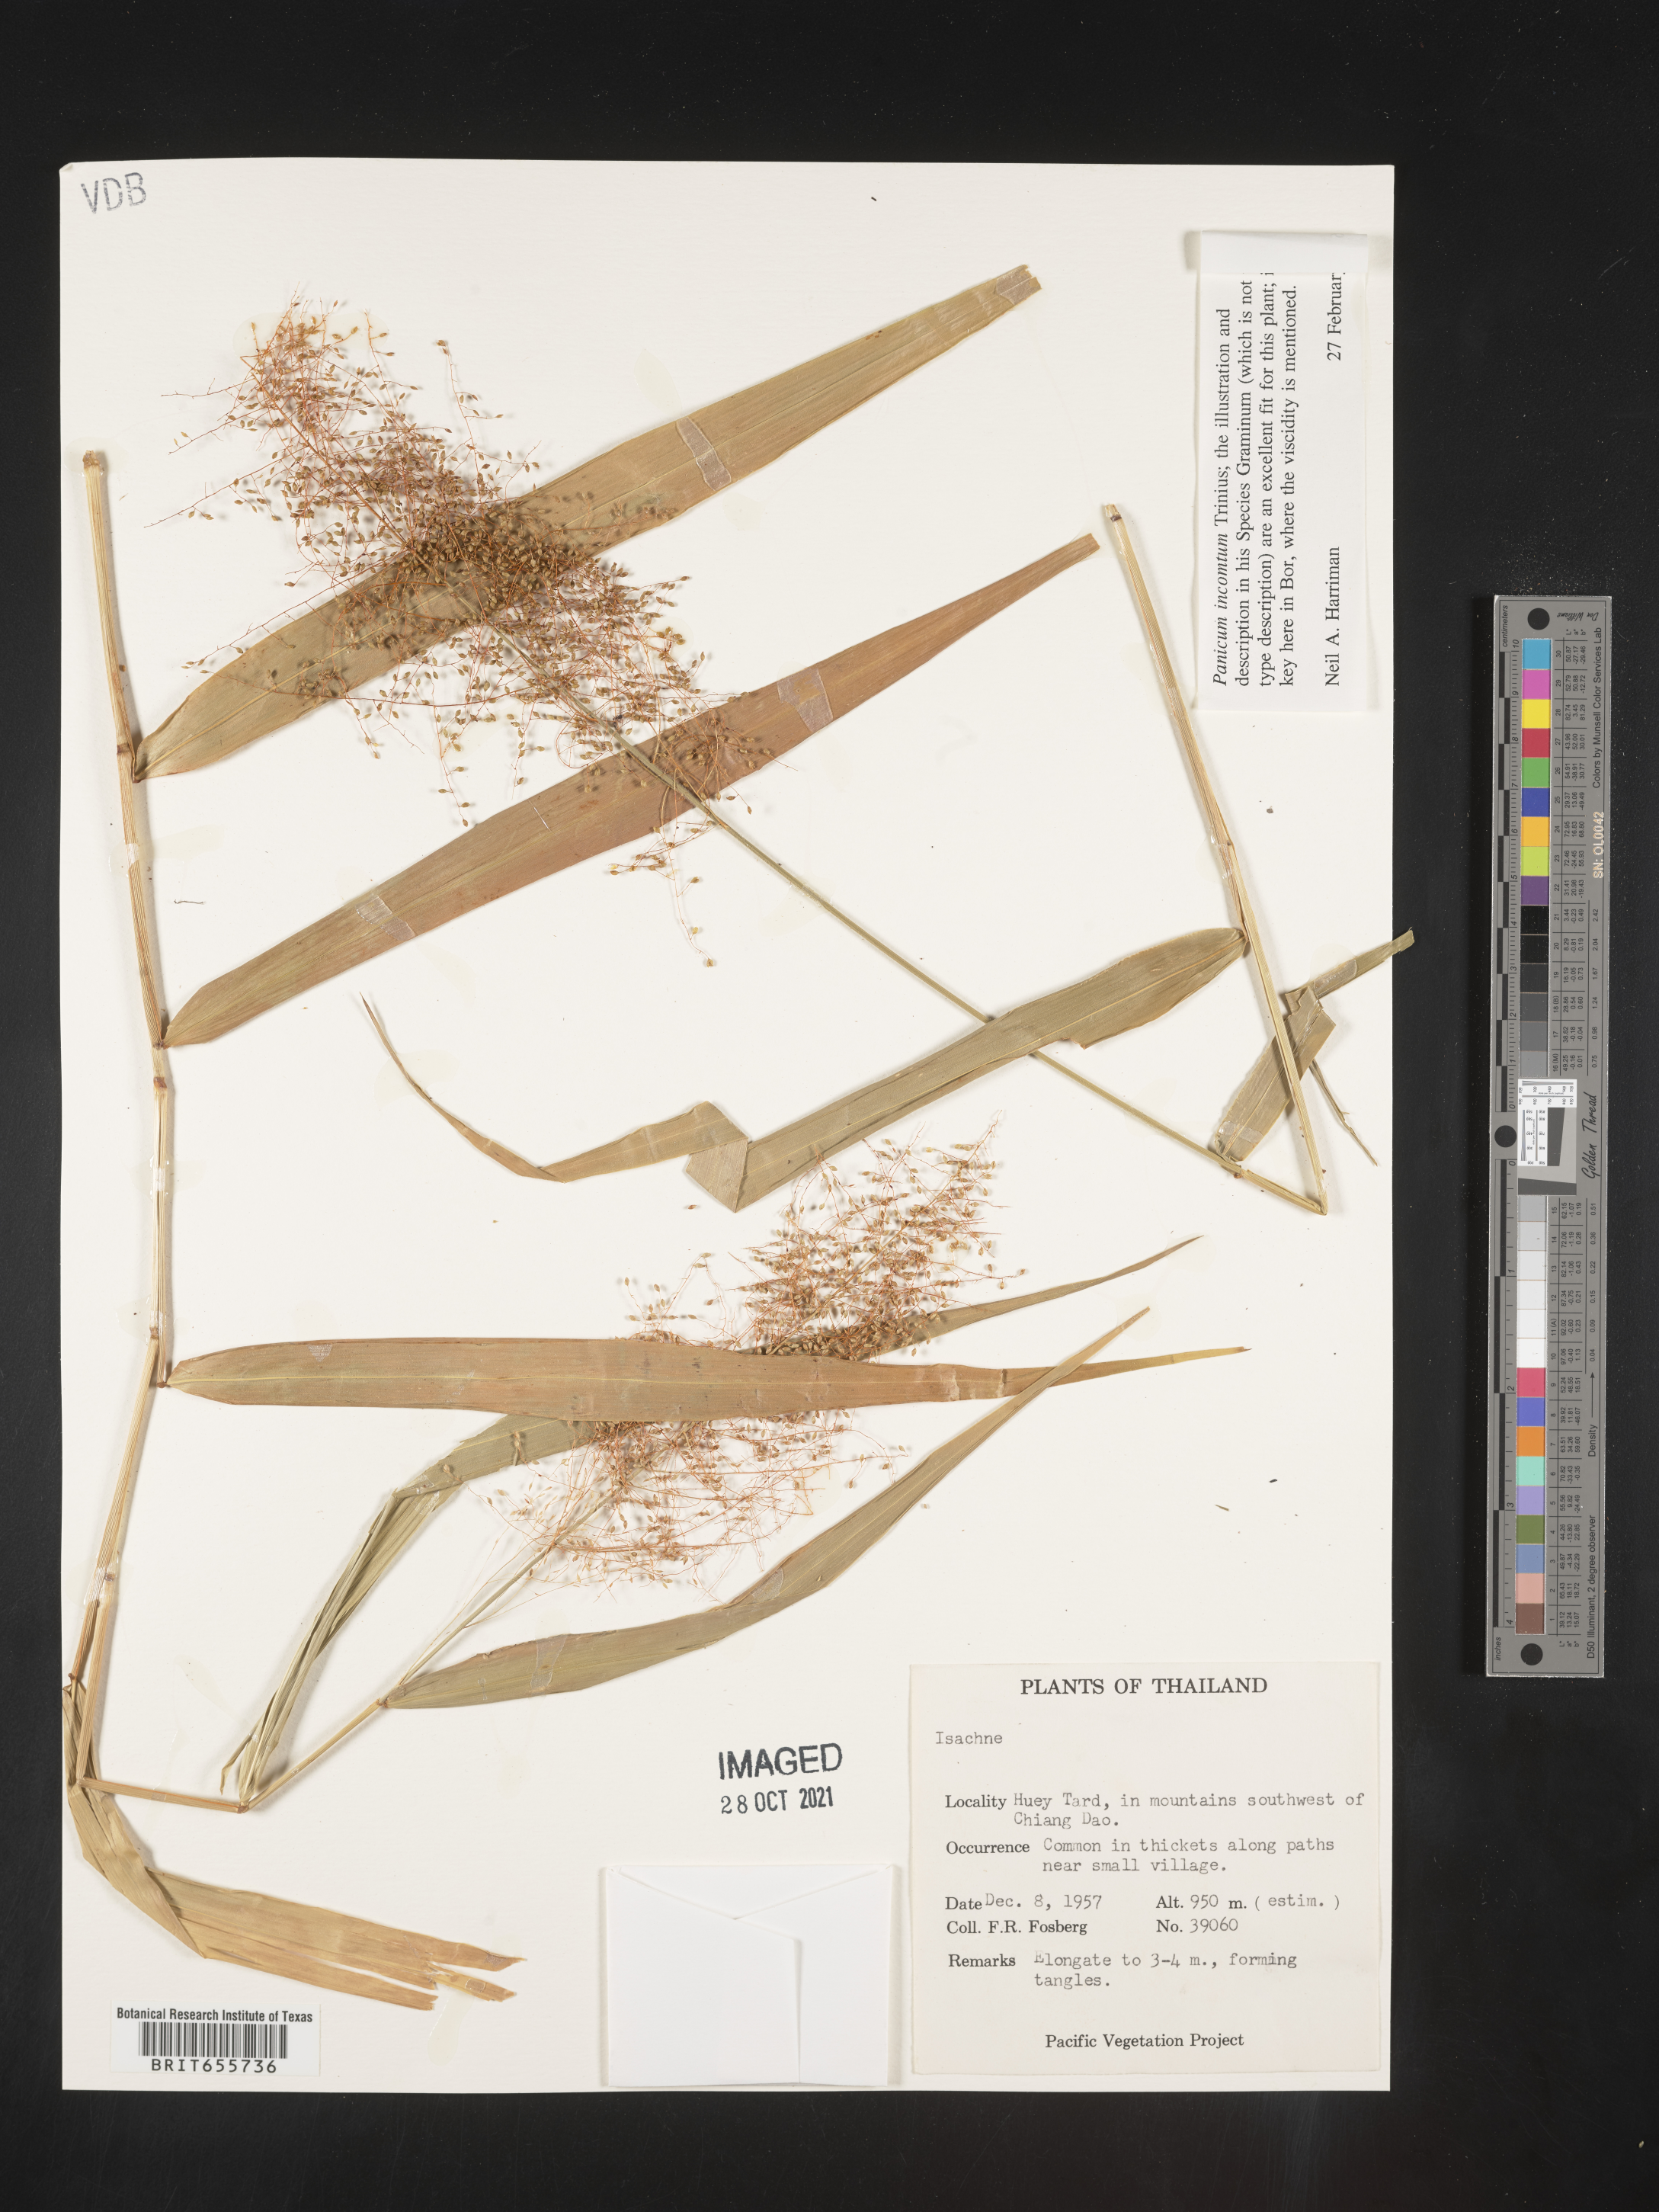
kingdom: Plantae
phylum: Tracheophyta
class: Liliopsida
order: Poales
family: Poaceae
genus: Panicum
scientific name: Panicum
